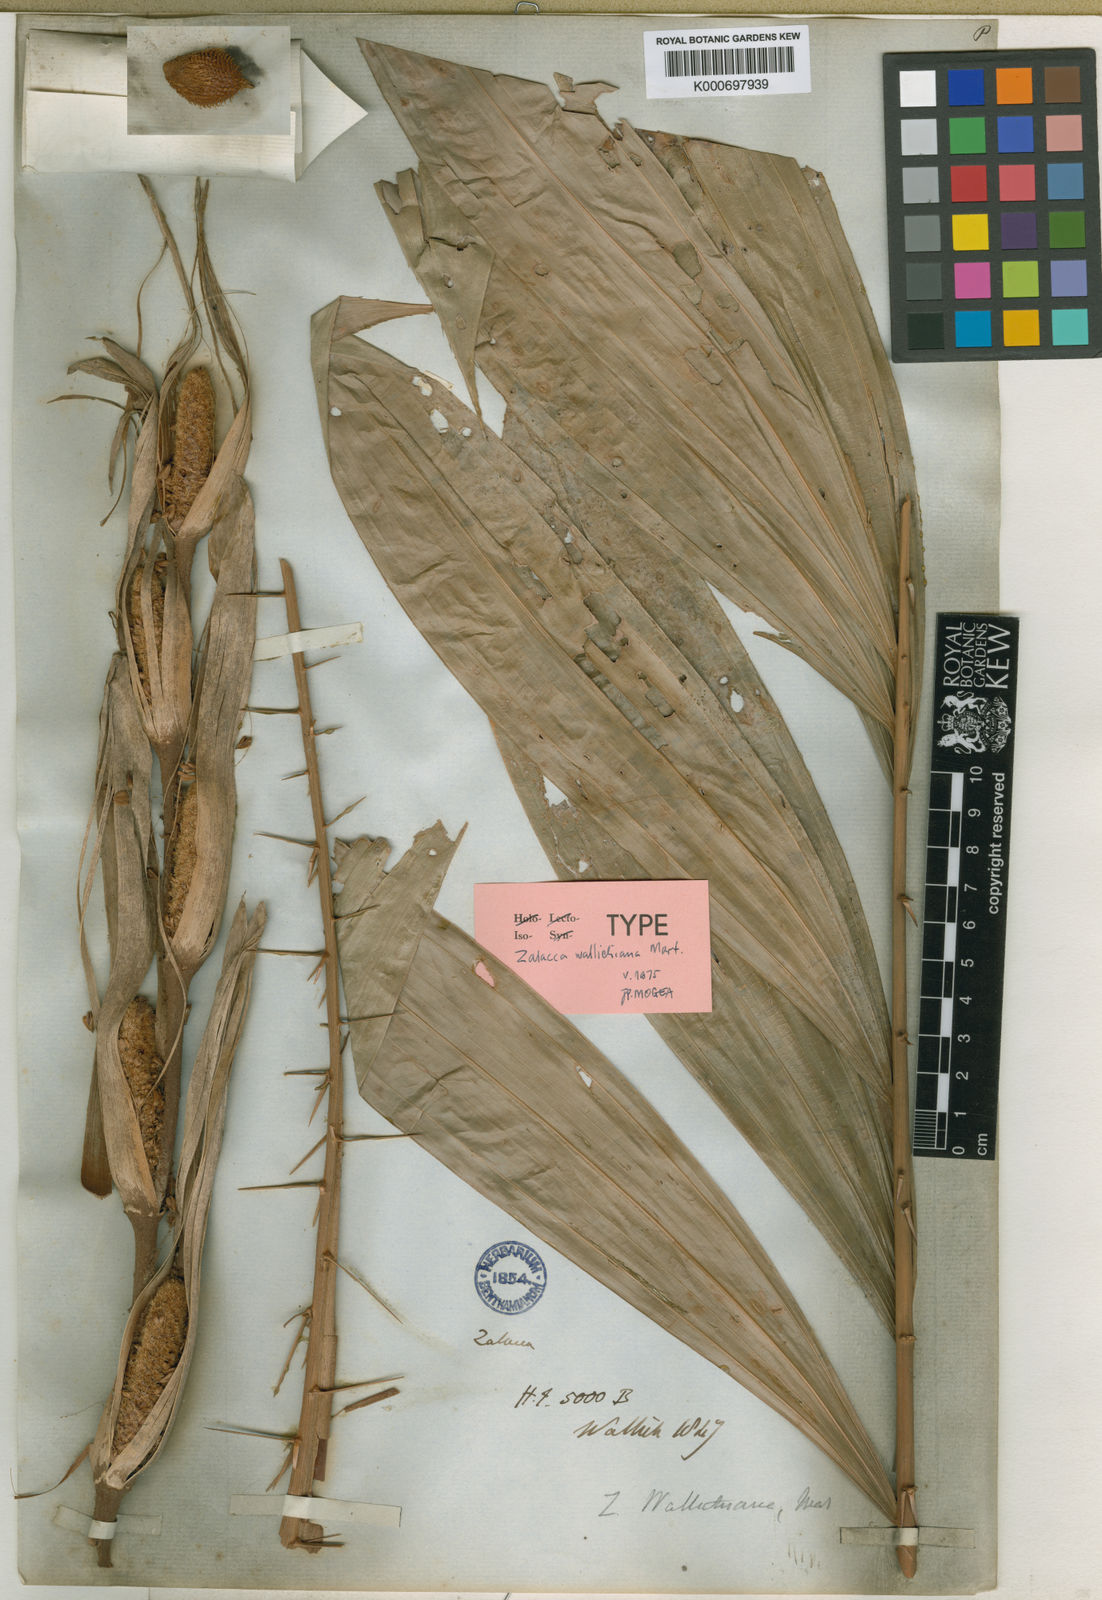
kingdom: Plantae
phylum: Tracheophyta
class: Liliopsida
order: Arecales
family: Arecaceae
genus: Salacca
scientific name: Salacca wallichiana
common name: Rakum palm
